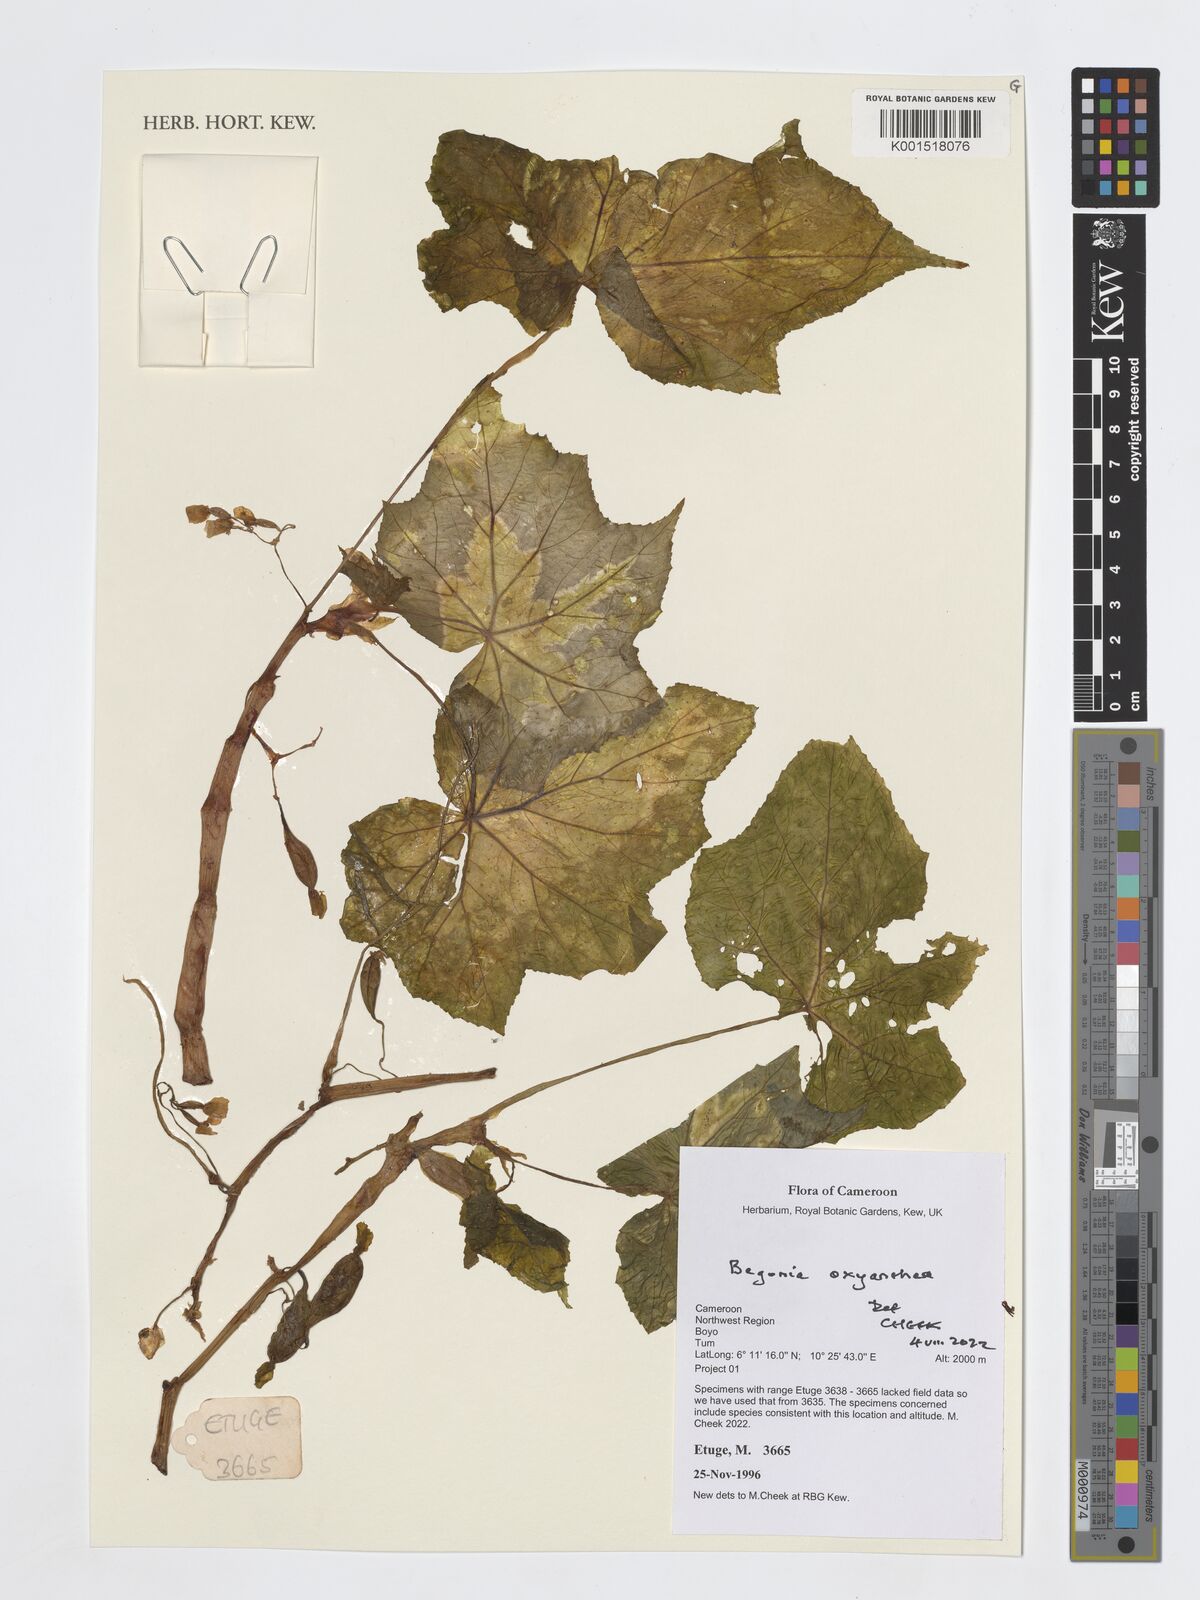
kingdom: Plantae
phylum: Tracheophyta
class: Magnoliopsida
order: Cucurbitales
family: Begoniaceae
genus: Begonia
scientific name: Begonia oxyanthera
